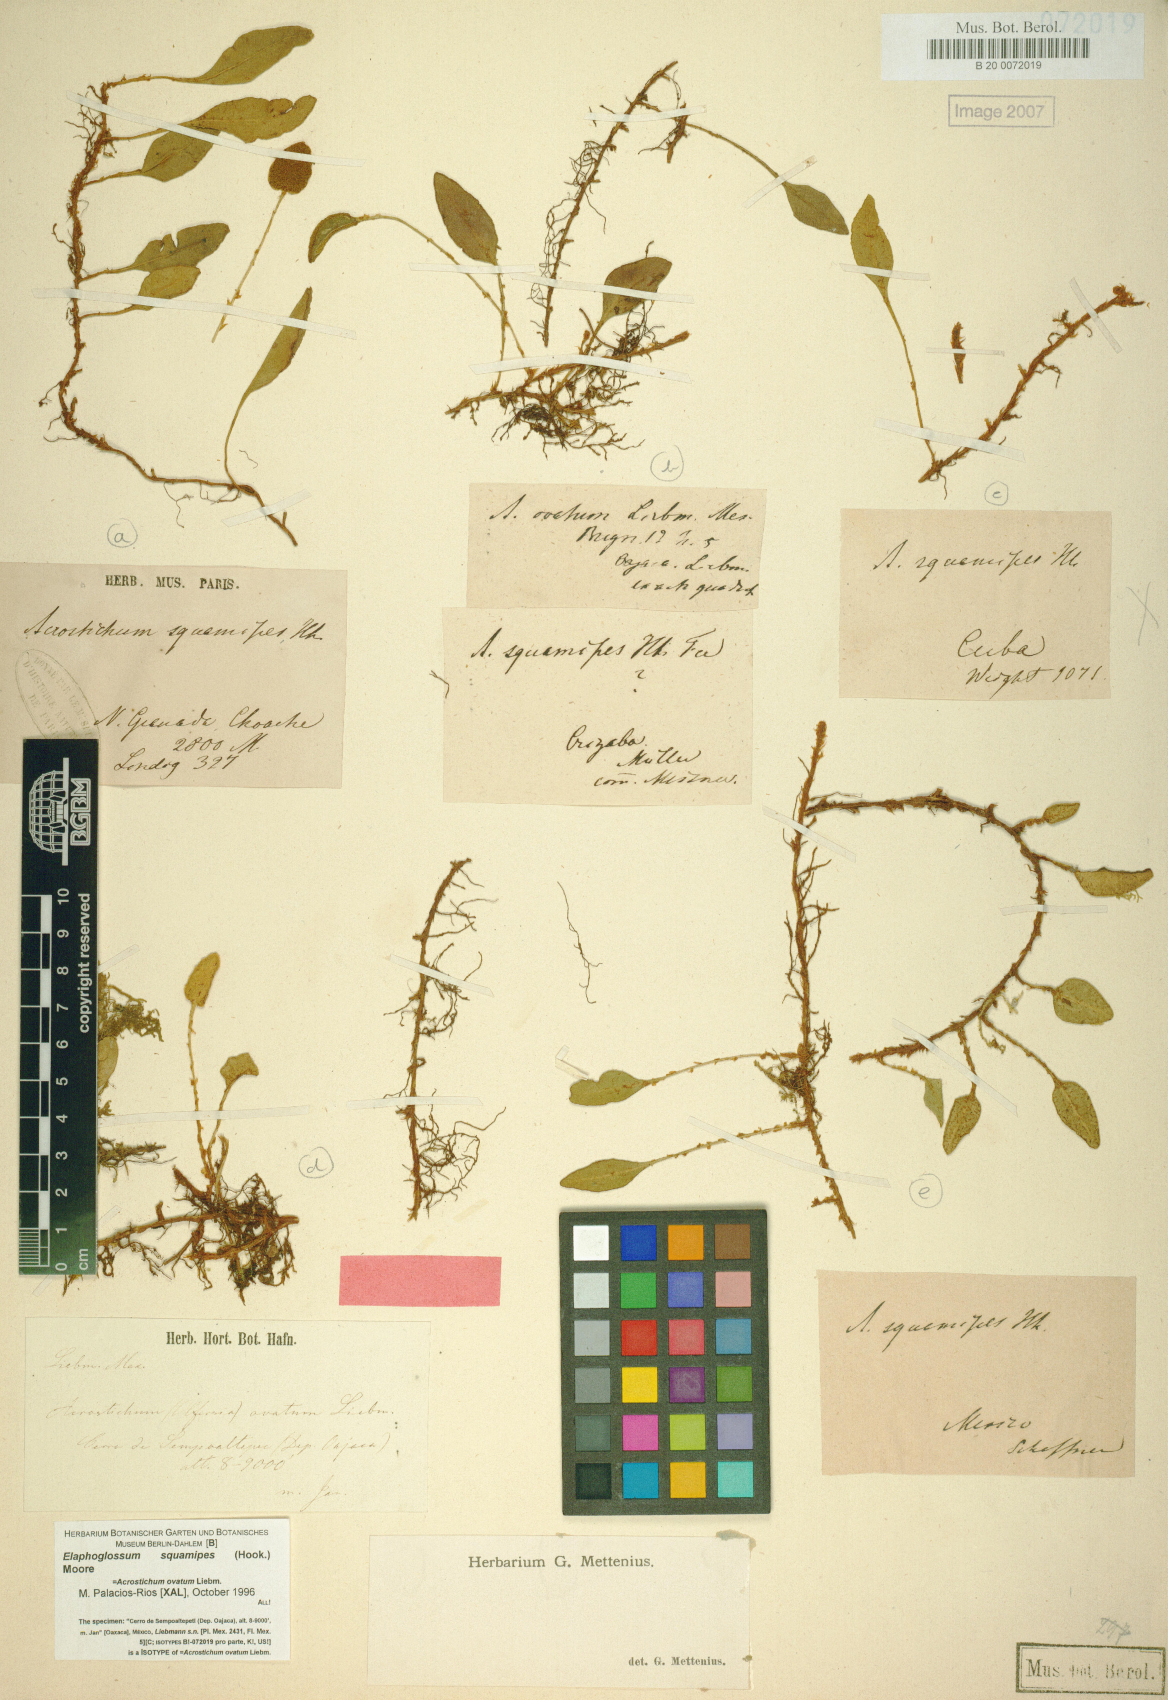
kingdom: Plantae
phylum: Tracheophyta
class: Polypodiopsida
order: Polypodiales
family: Dryopteridaceae
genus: Elaphoglossum
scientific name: Elaphoglossum squamipes
